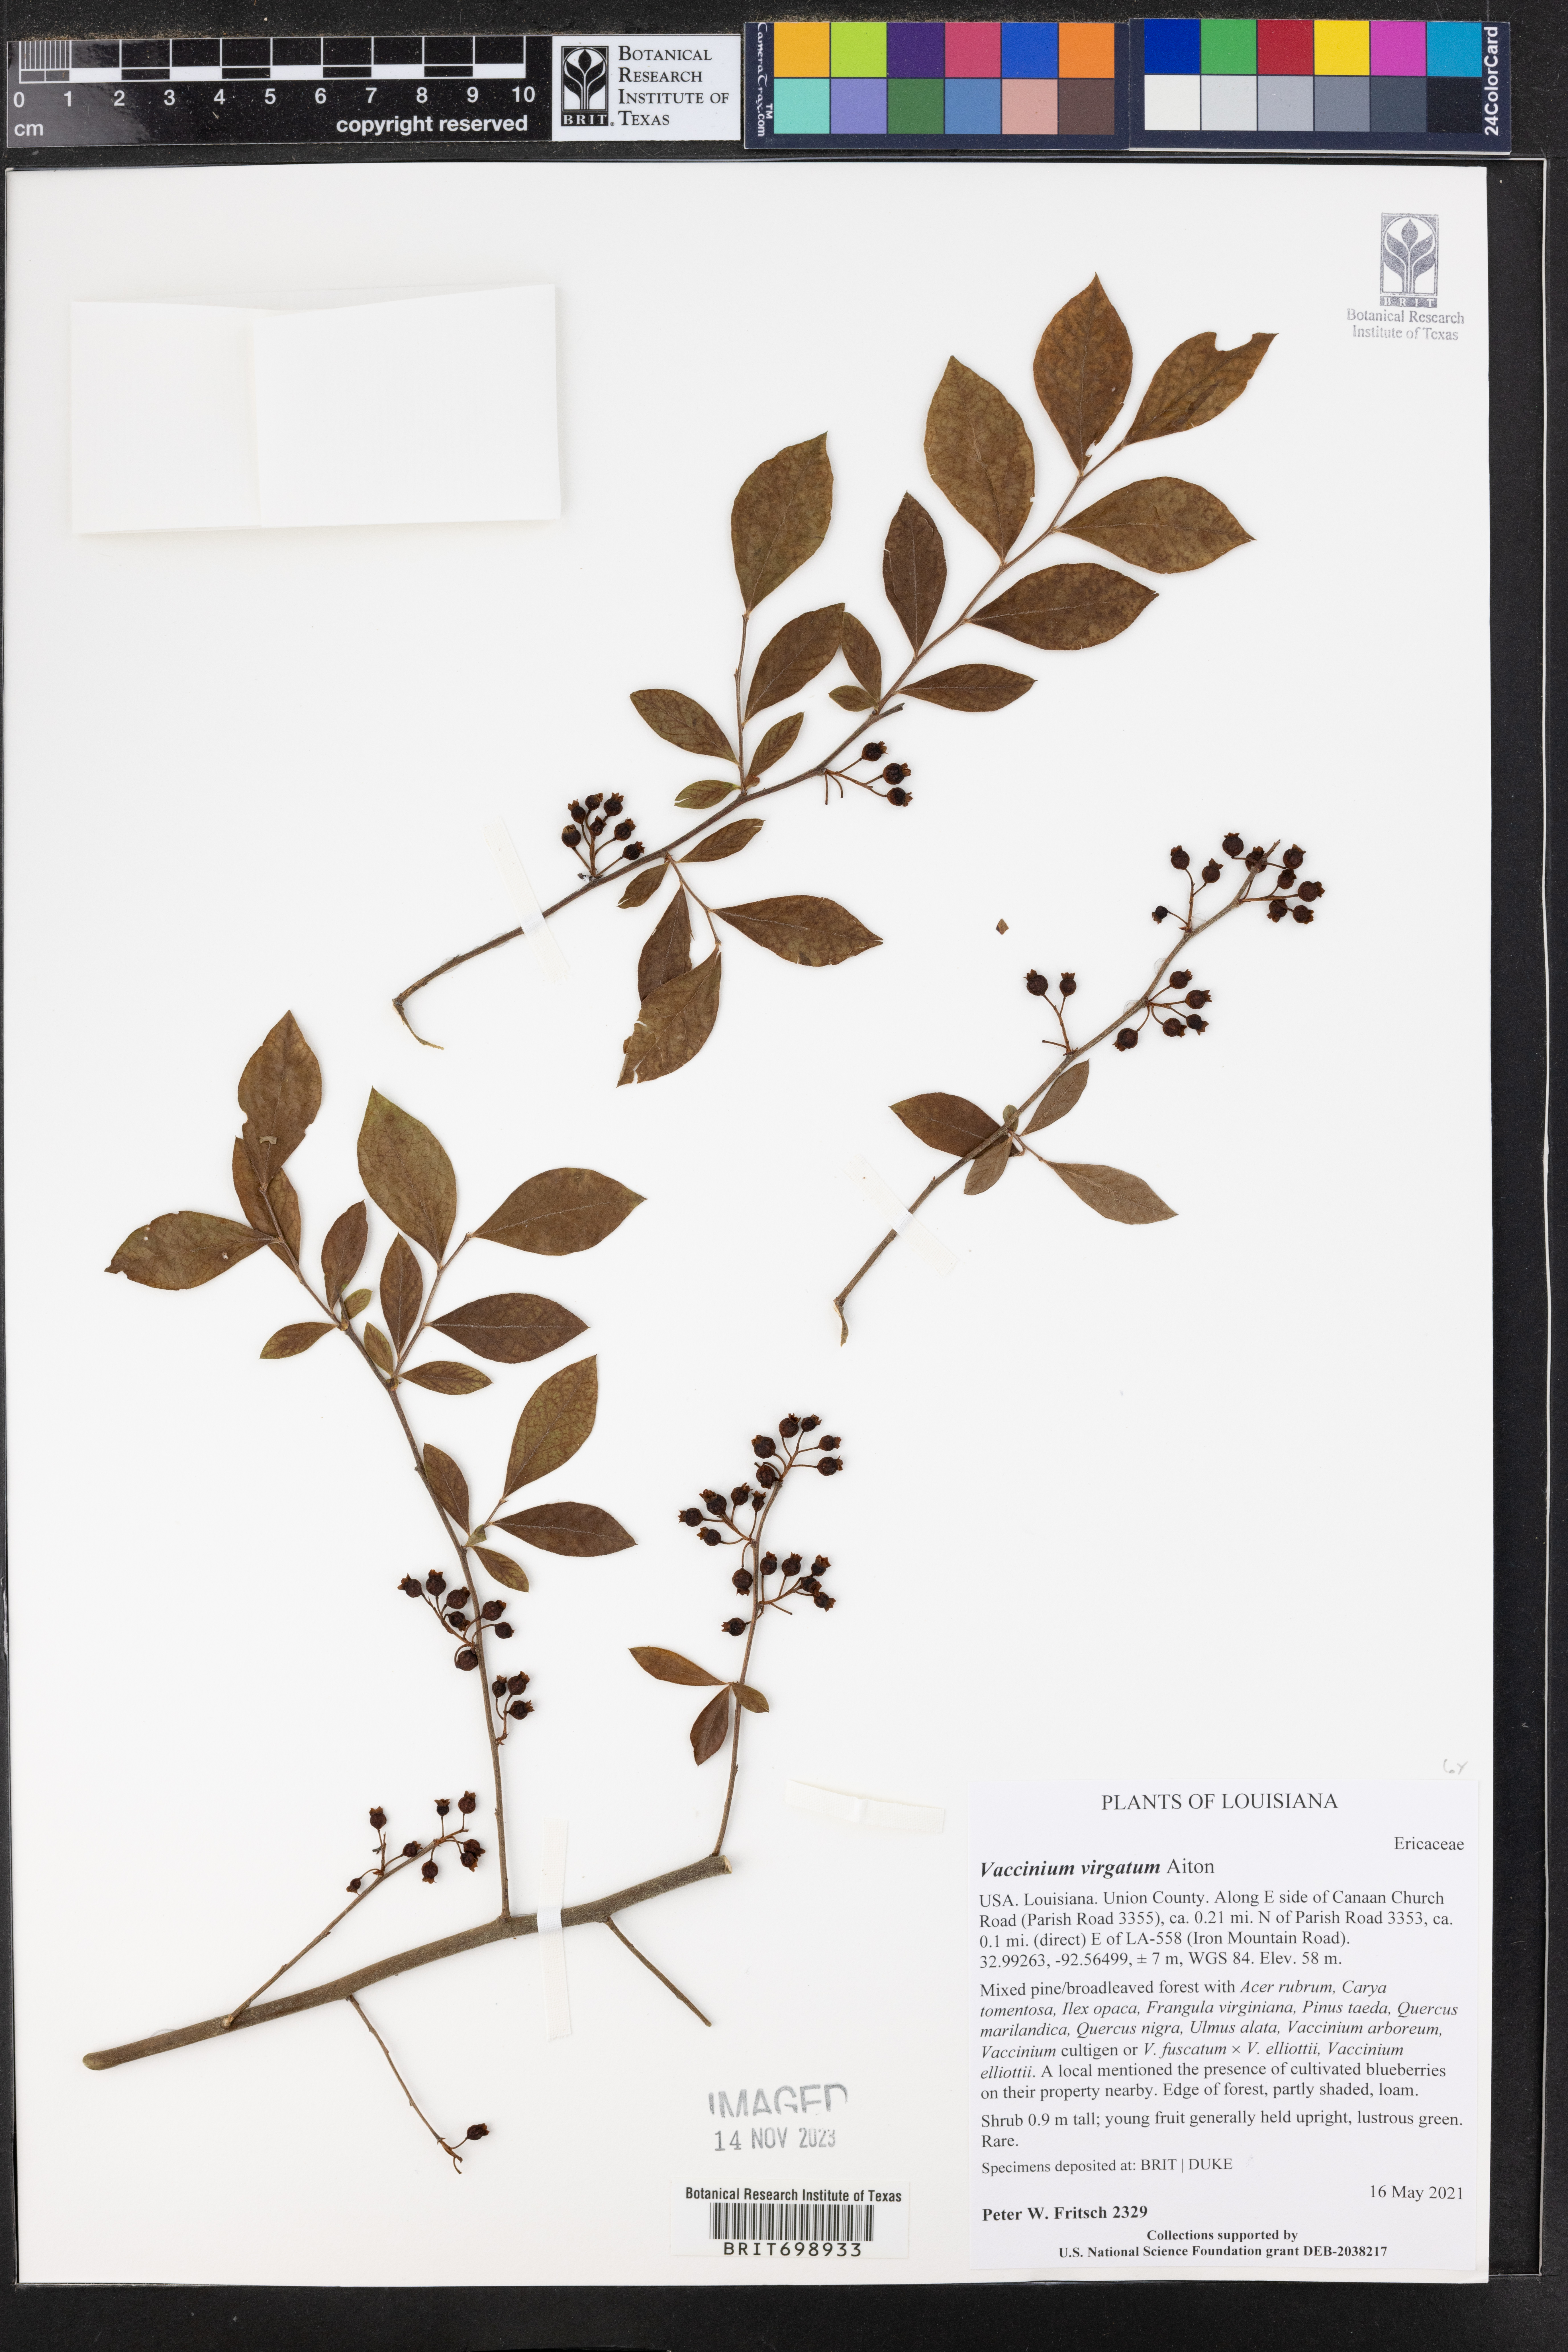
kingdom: Plantae
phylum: Tracheophyta
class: Magnoliopsida
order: Ericales
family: Ericaceae
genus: Vaccinium
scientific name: Vaccinium corymbosum
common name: Blueberry
